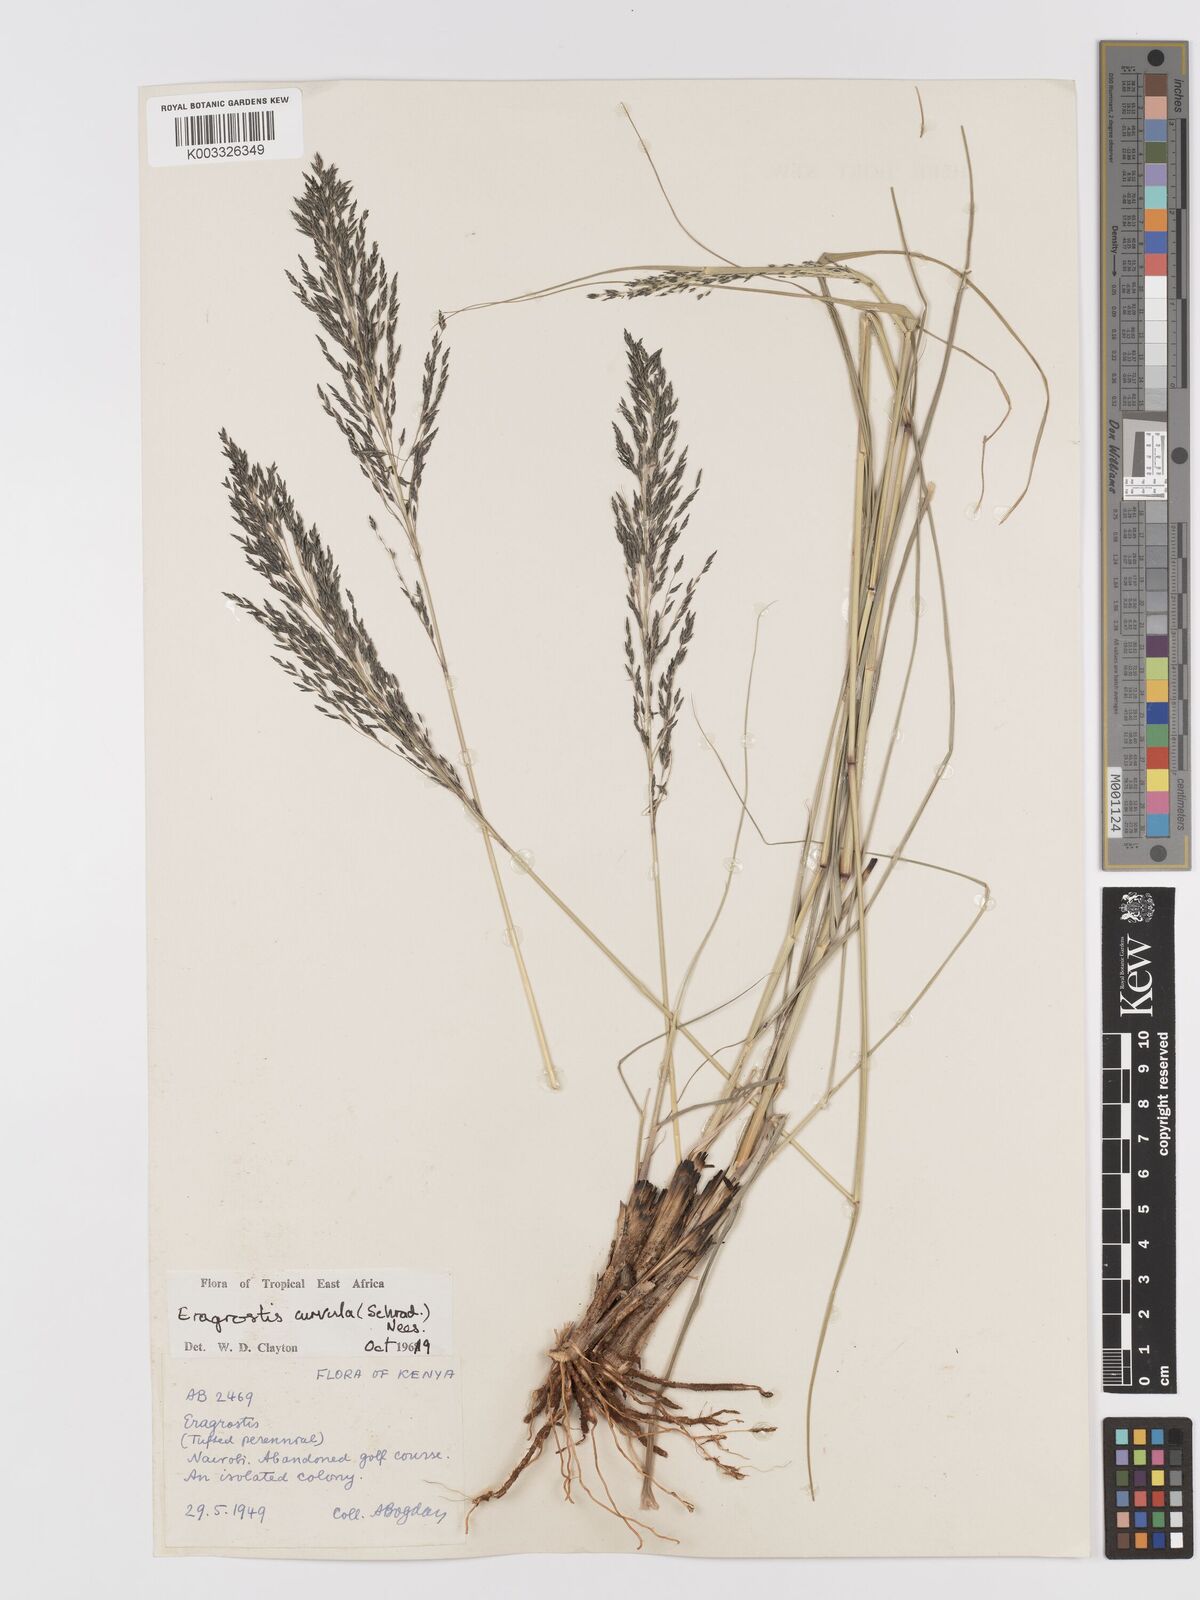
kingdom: Plantae
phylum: Tracheophyta
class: Liliopsida
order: Poales
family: Poaceae
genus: Eragrostis
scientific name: Eragrostis curvula
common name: African love-grass
